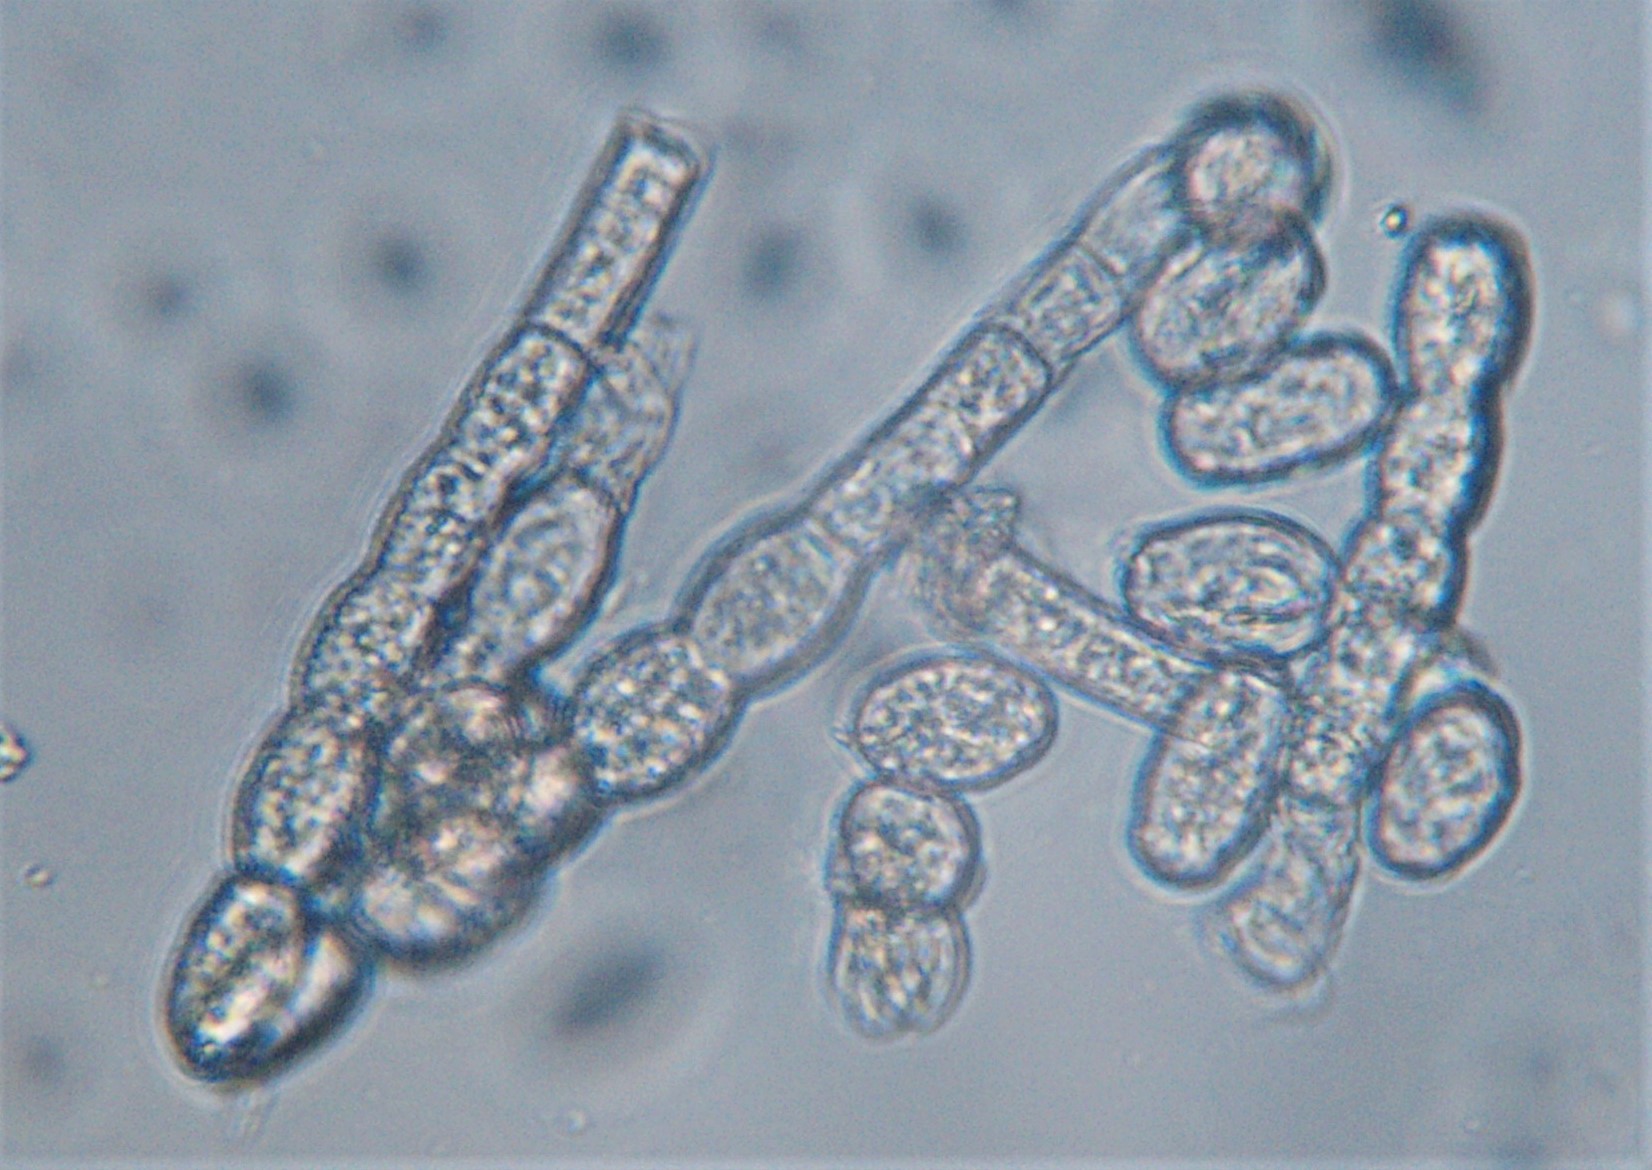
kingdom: Fungi
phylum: Ascomycota
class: Leotiomycetes
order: Helotiales
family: Erysiphaceae
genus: Podosphaera
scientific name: Podosphaera fusca
